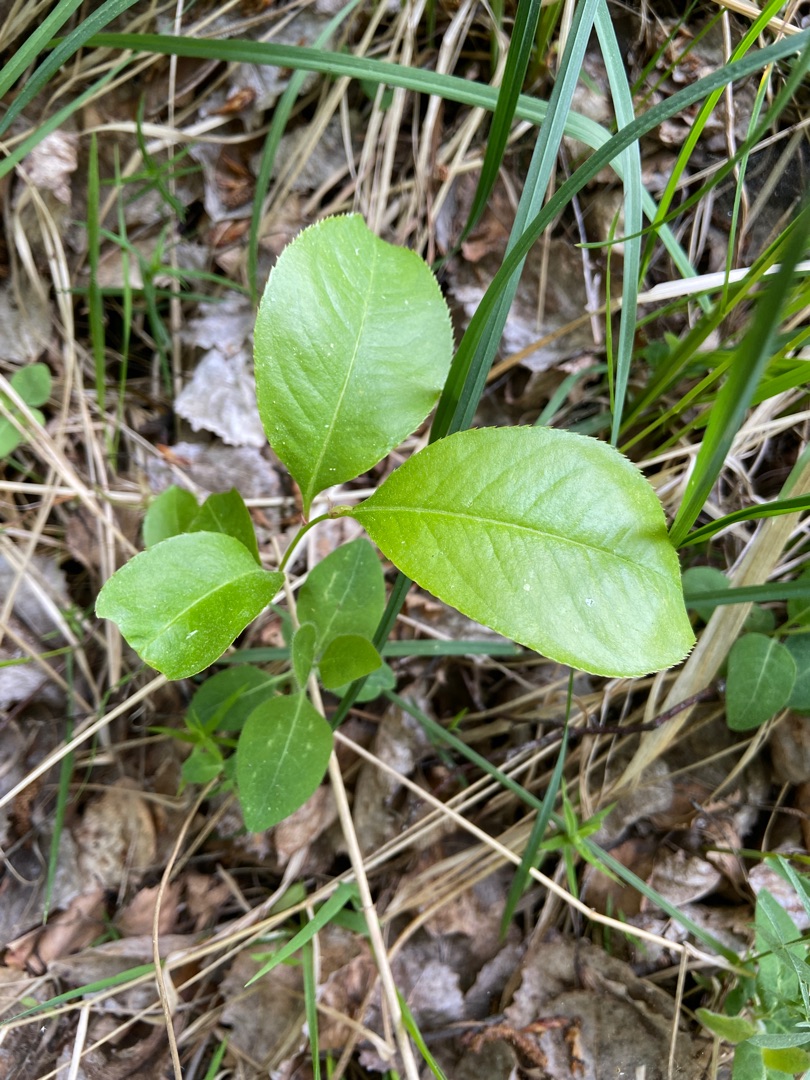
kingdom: Plantae
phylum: Tracheophyta
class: Magnoliopsida
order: Rosales
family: Rosaceae
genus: Prunus
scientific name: Prunus serotina
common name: Glansbladet hæg
